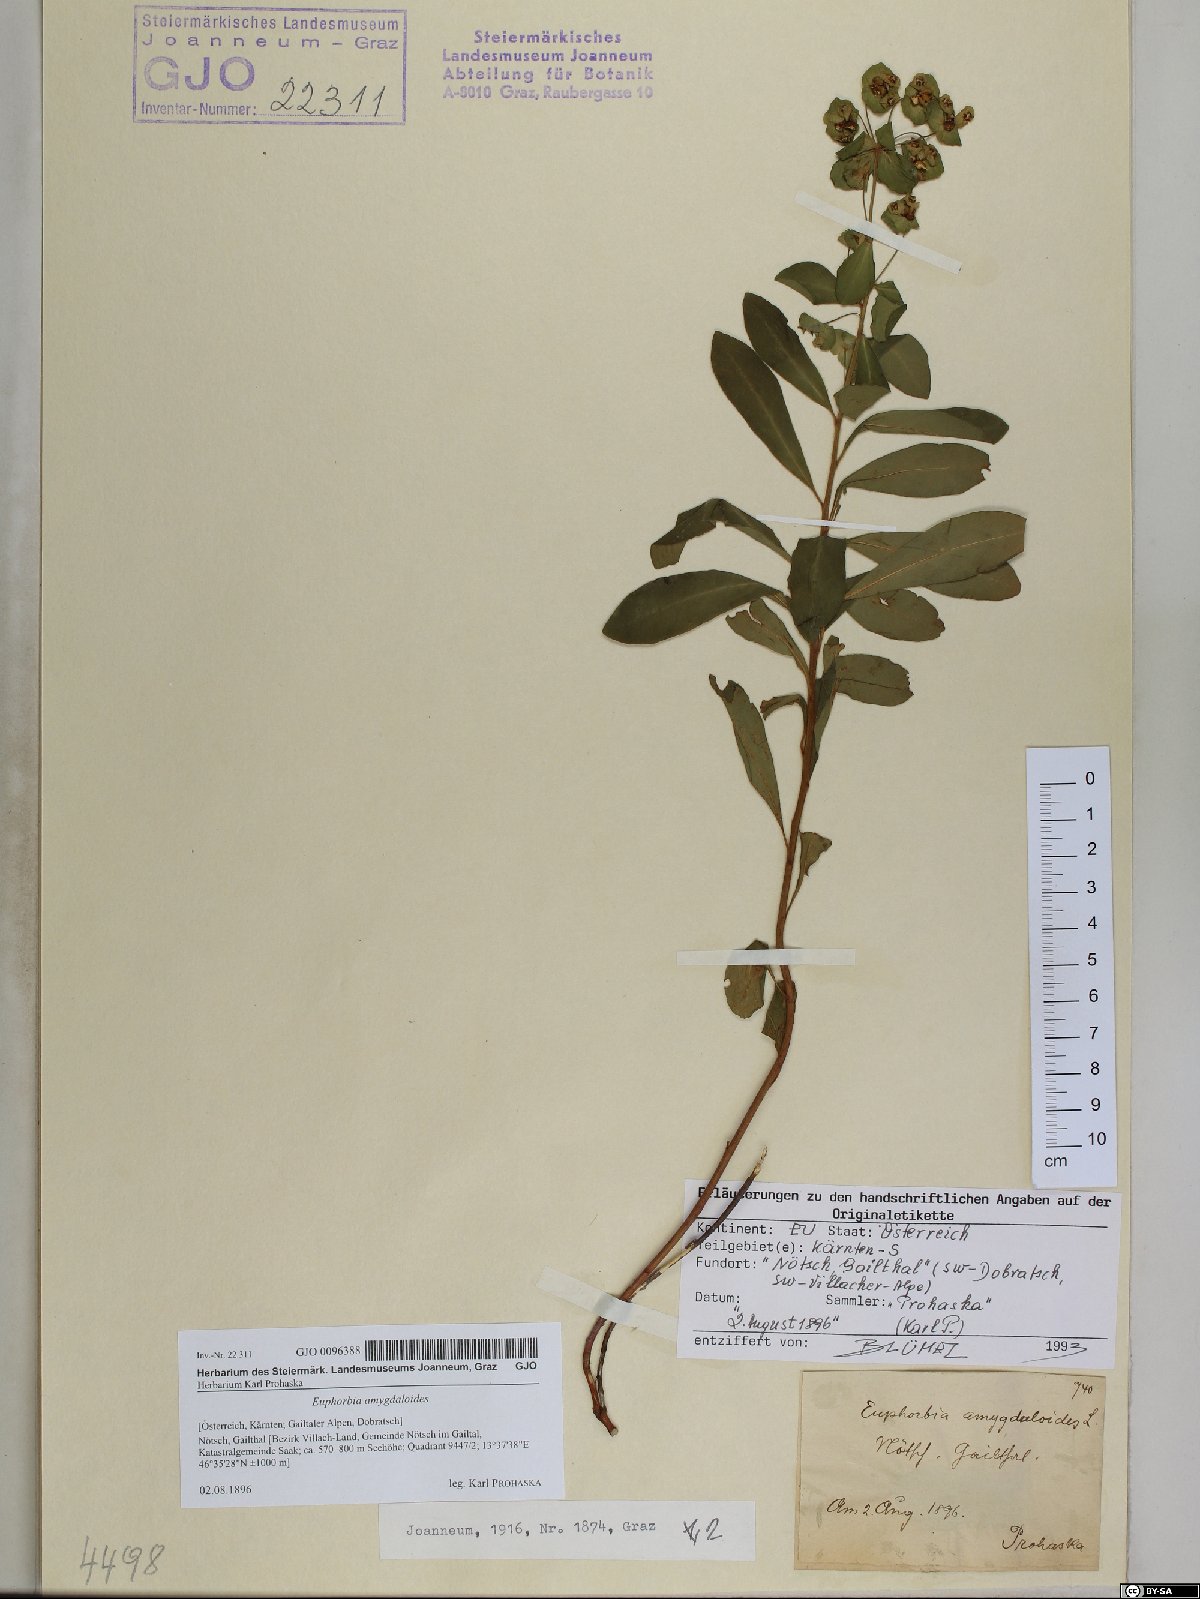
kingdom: Plantae
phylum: Tracheophyta
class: Magnoliopsida
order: Malpighiales
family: Euphorbiaceae
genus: Euphorbia
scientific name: Euphorbia amygdaloides
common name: Wood spurge
